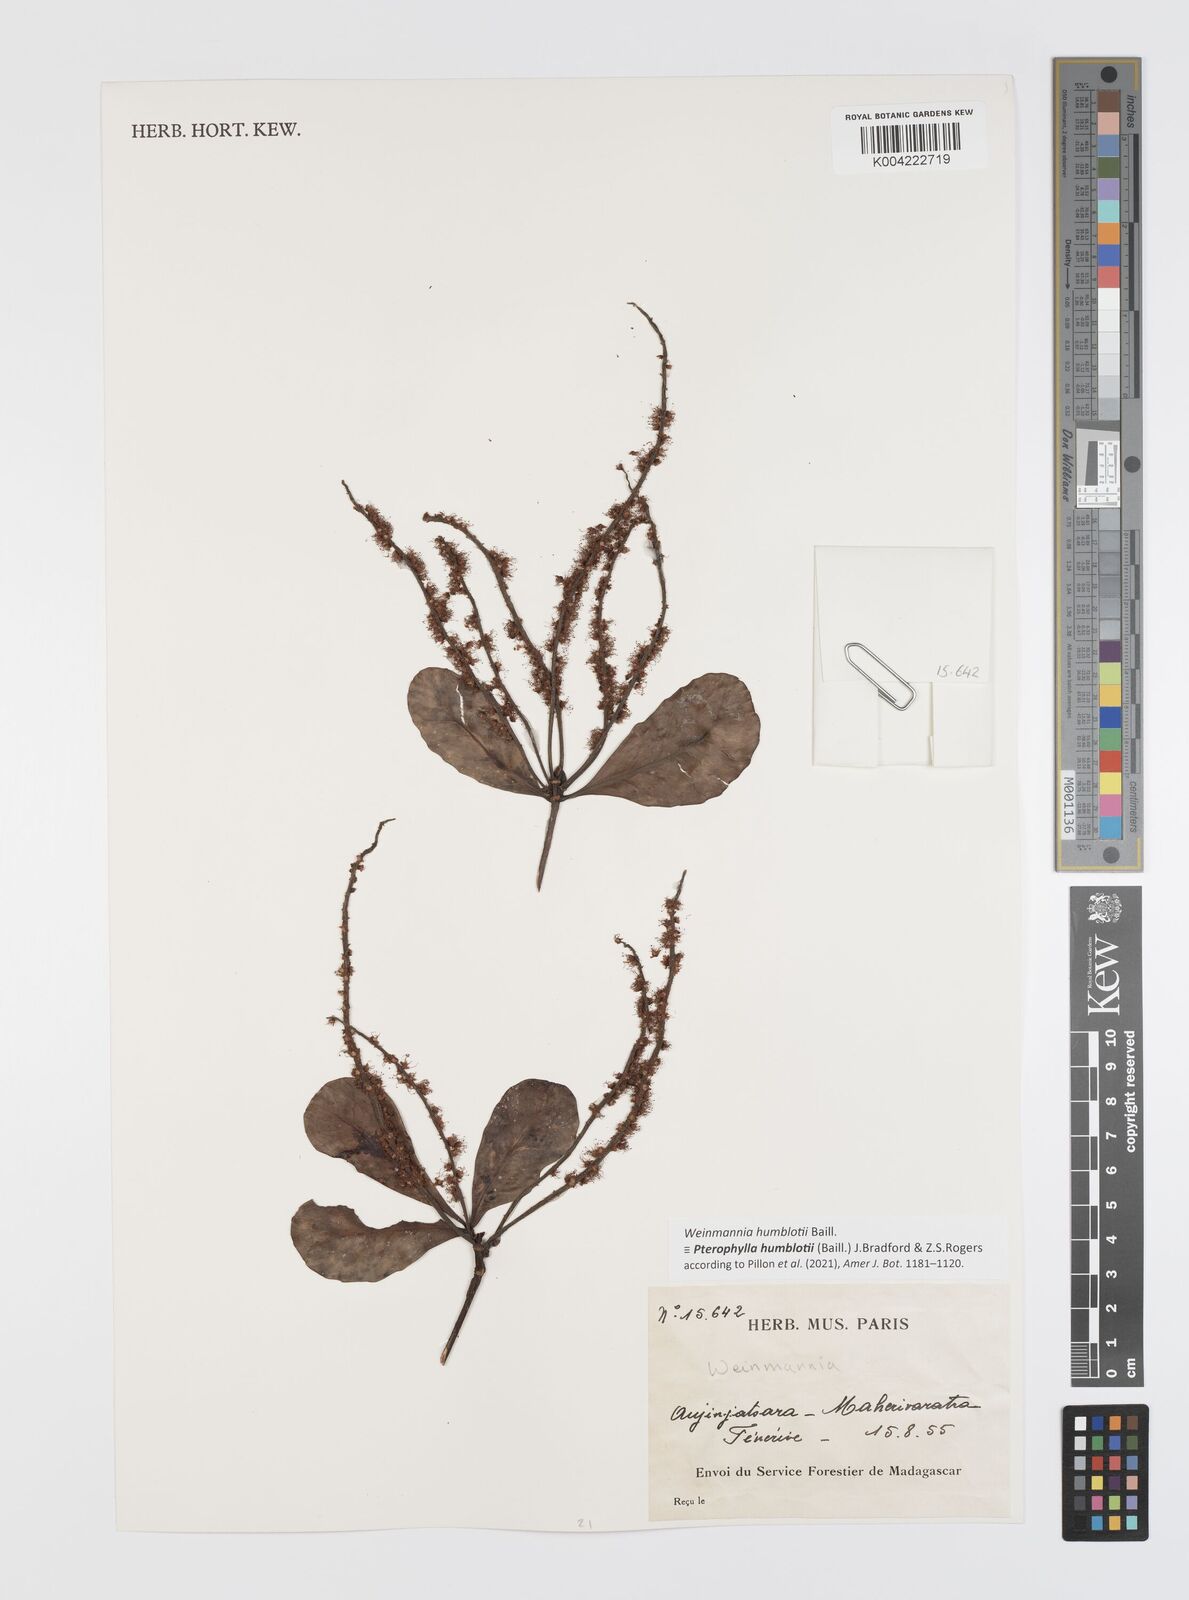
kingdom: Plantae
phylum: Tracheophyta
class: Magnoliopsida
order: Oxalidales
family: Cunoniaceae
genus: Pterophylla
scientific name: Pterophylla
